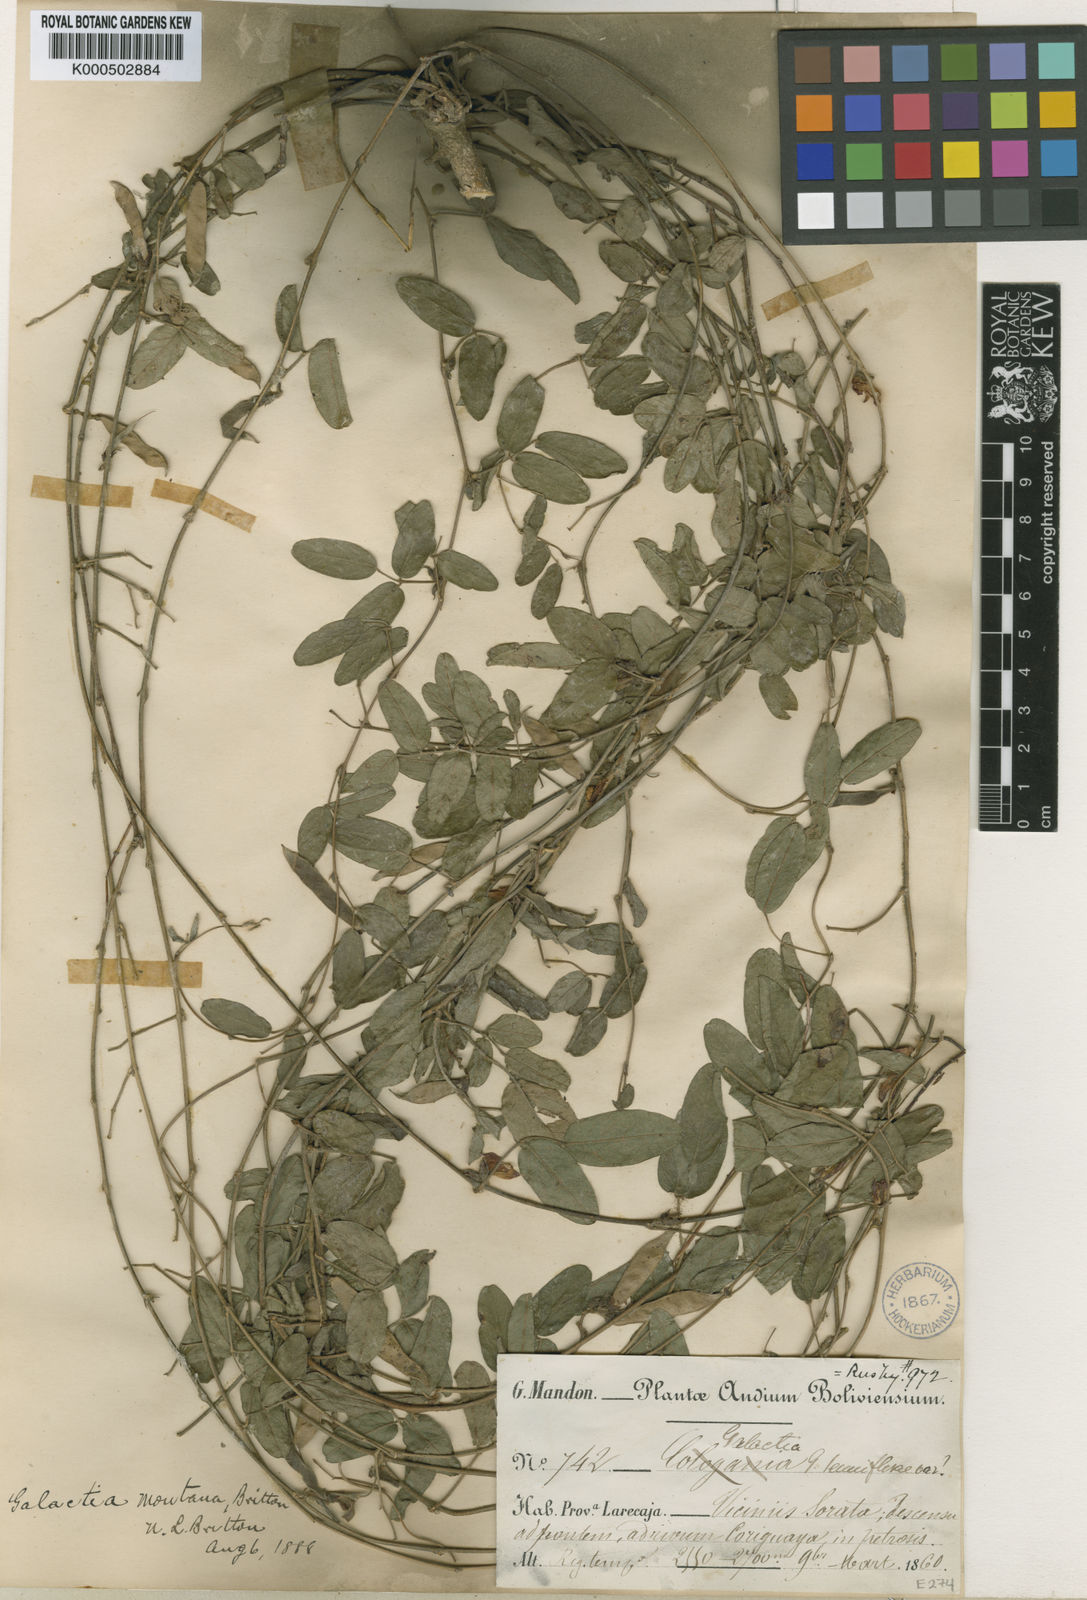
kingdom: Plantae
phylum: Tracheophyta
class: Magnoliopsida
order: Fabales
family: Fabaceae
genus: Galactia
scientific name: Galactia dubia
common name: West indian milkpea
